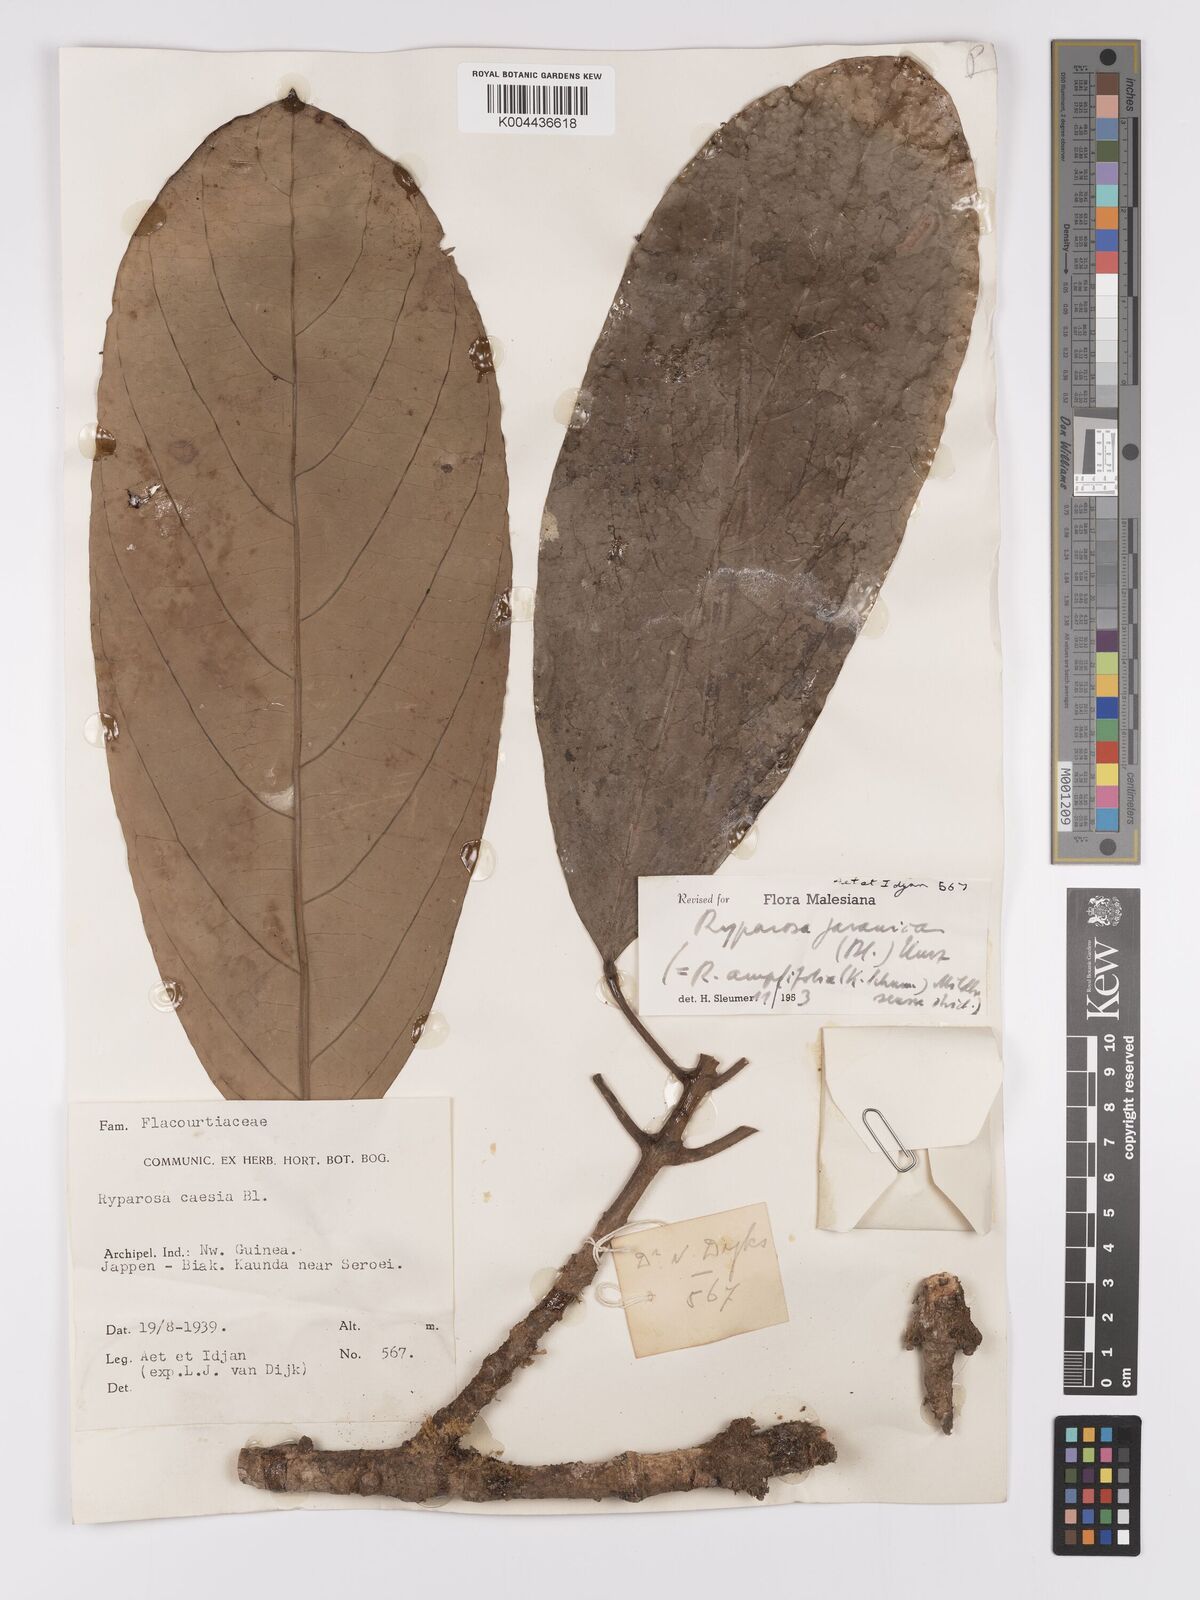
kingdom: Plantae
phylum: Tracheophyta
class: Magnoliopsida
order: Malpighiales
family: Achariaceae
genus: Ryparosa
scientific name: Ryparosa javanica
